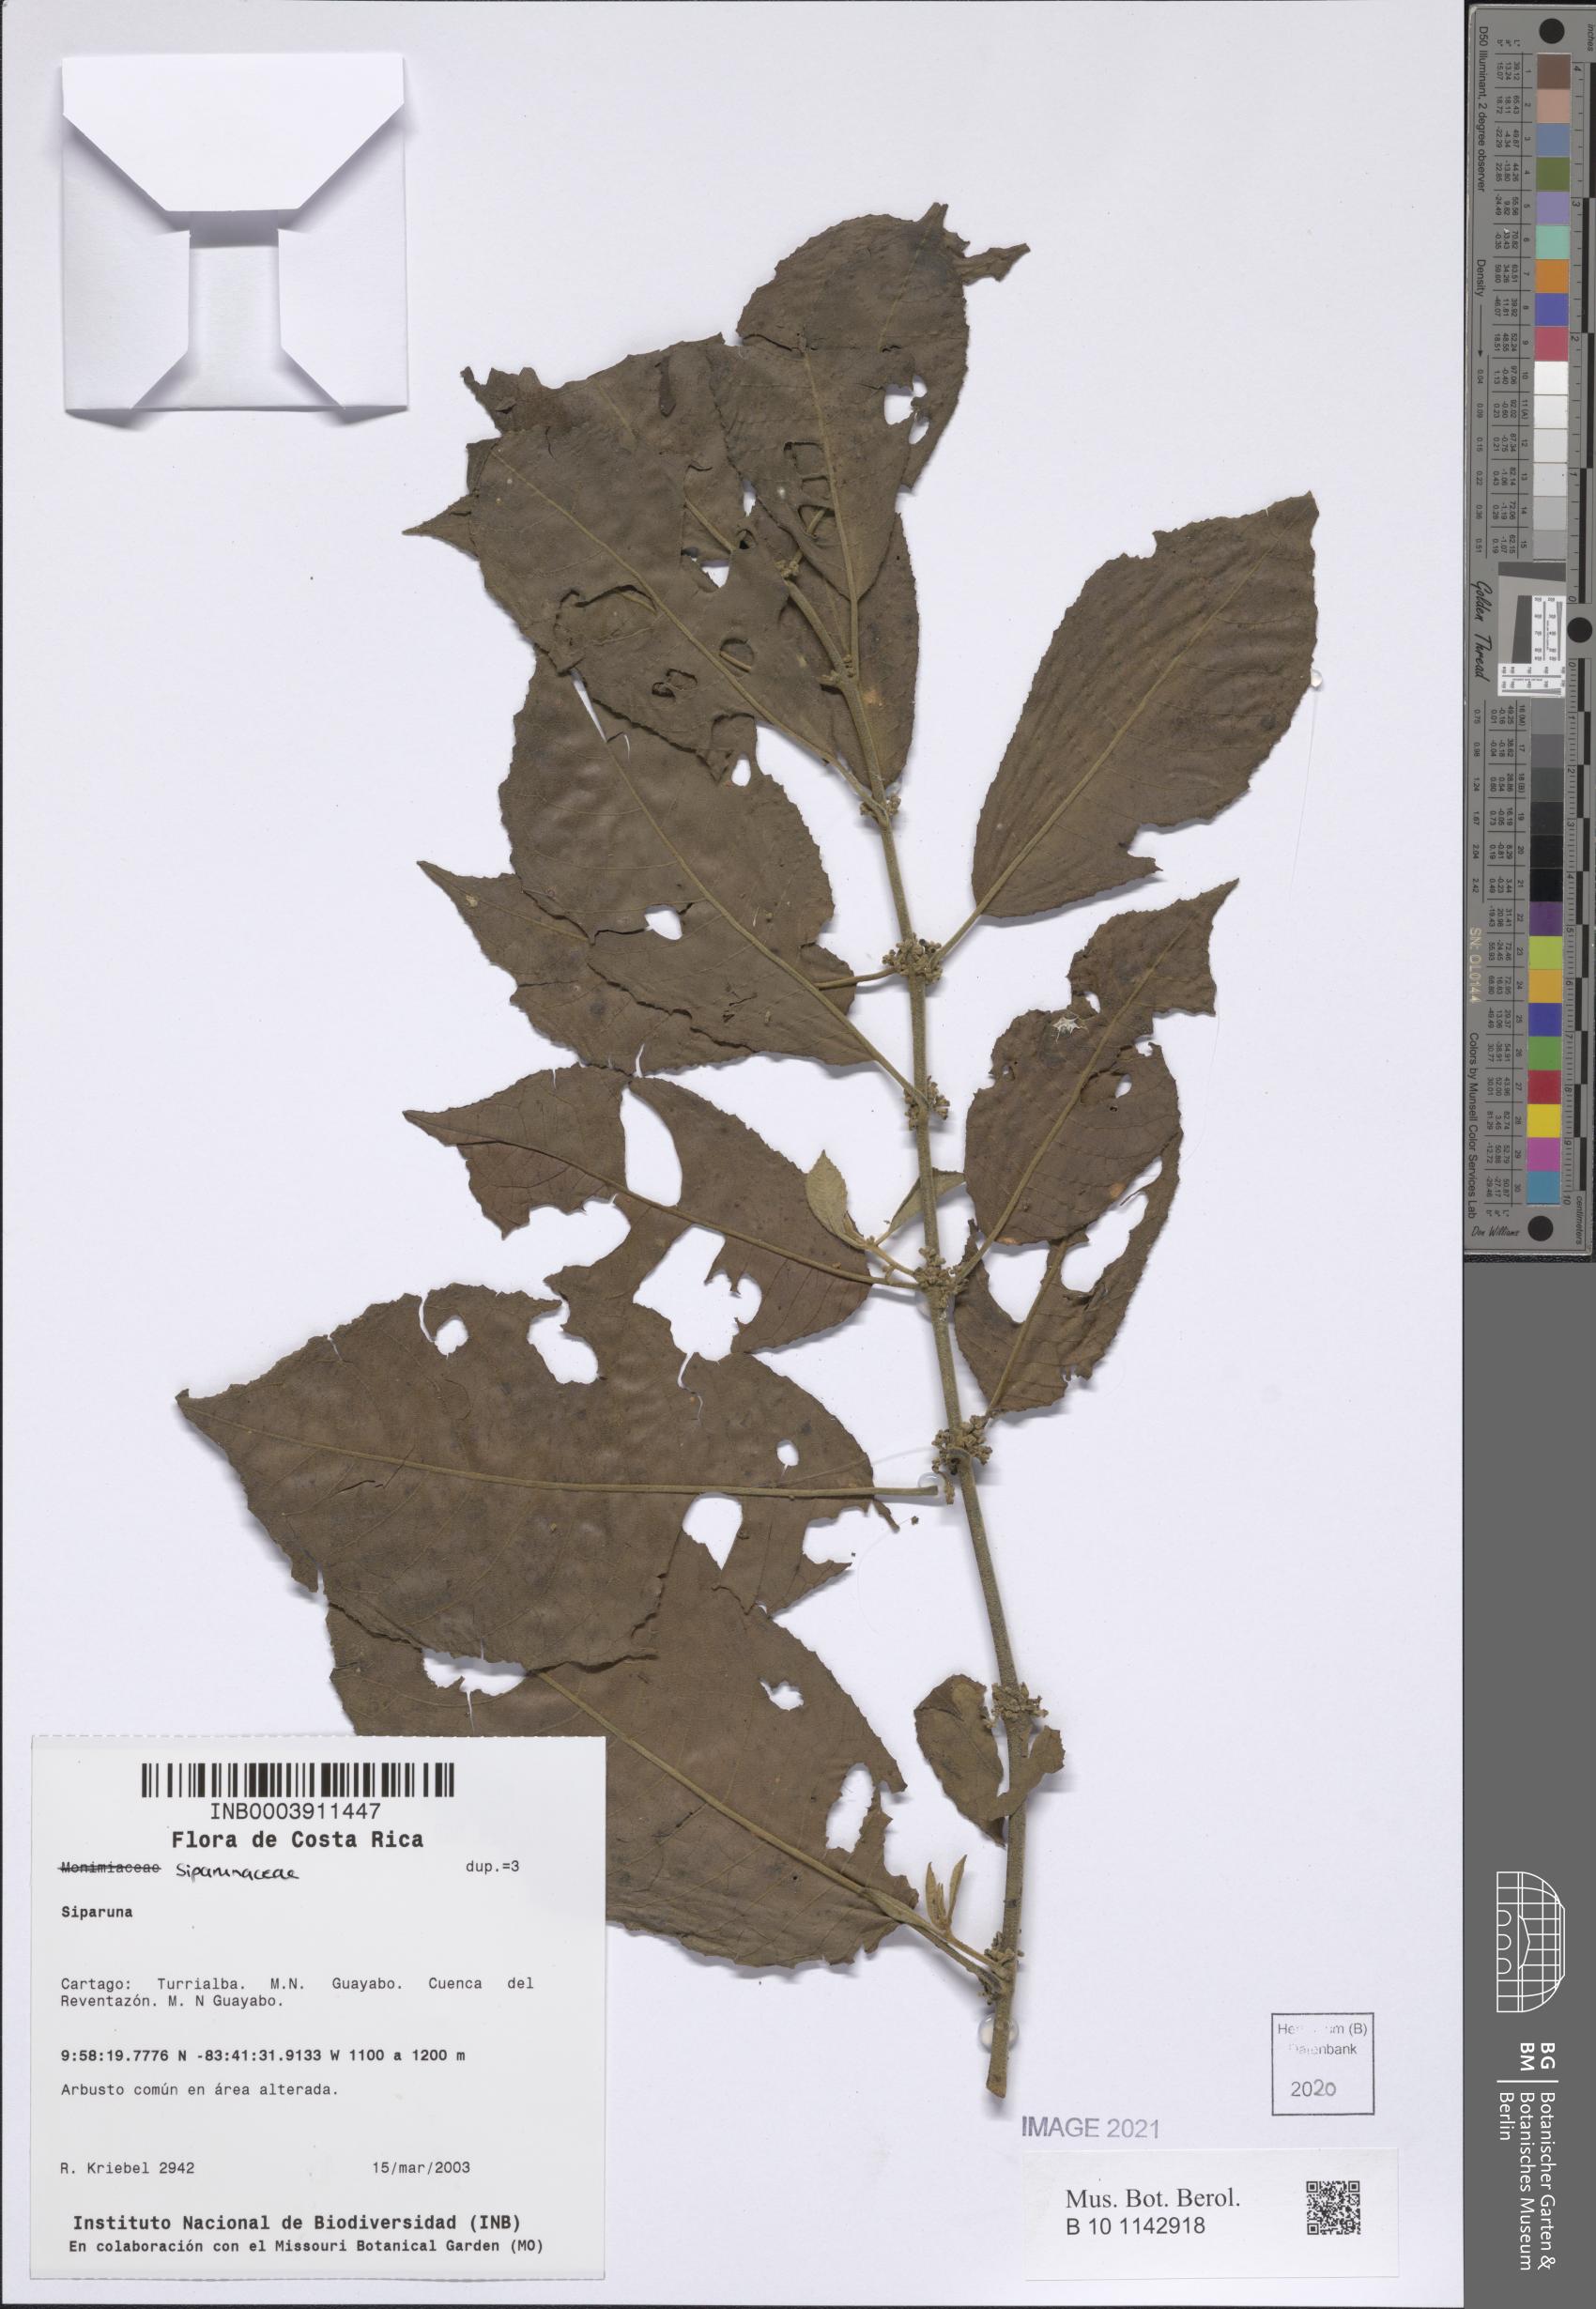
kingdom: Plantae
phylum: Tracheophyta
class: Magnoliopsida
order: Laurales
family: Siparunaceae
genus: Siparuna
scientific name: Siparuna
